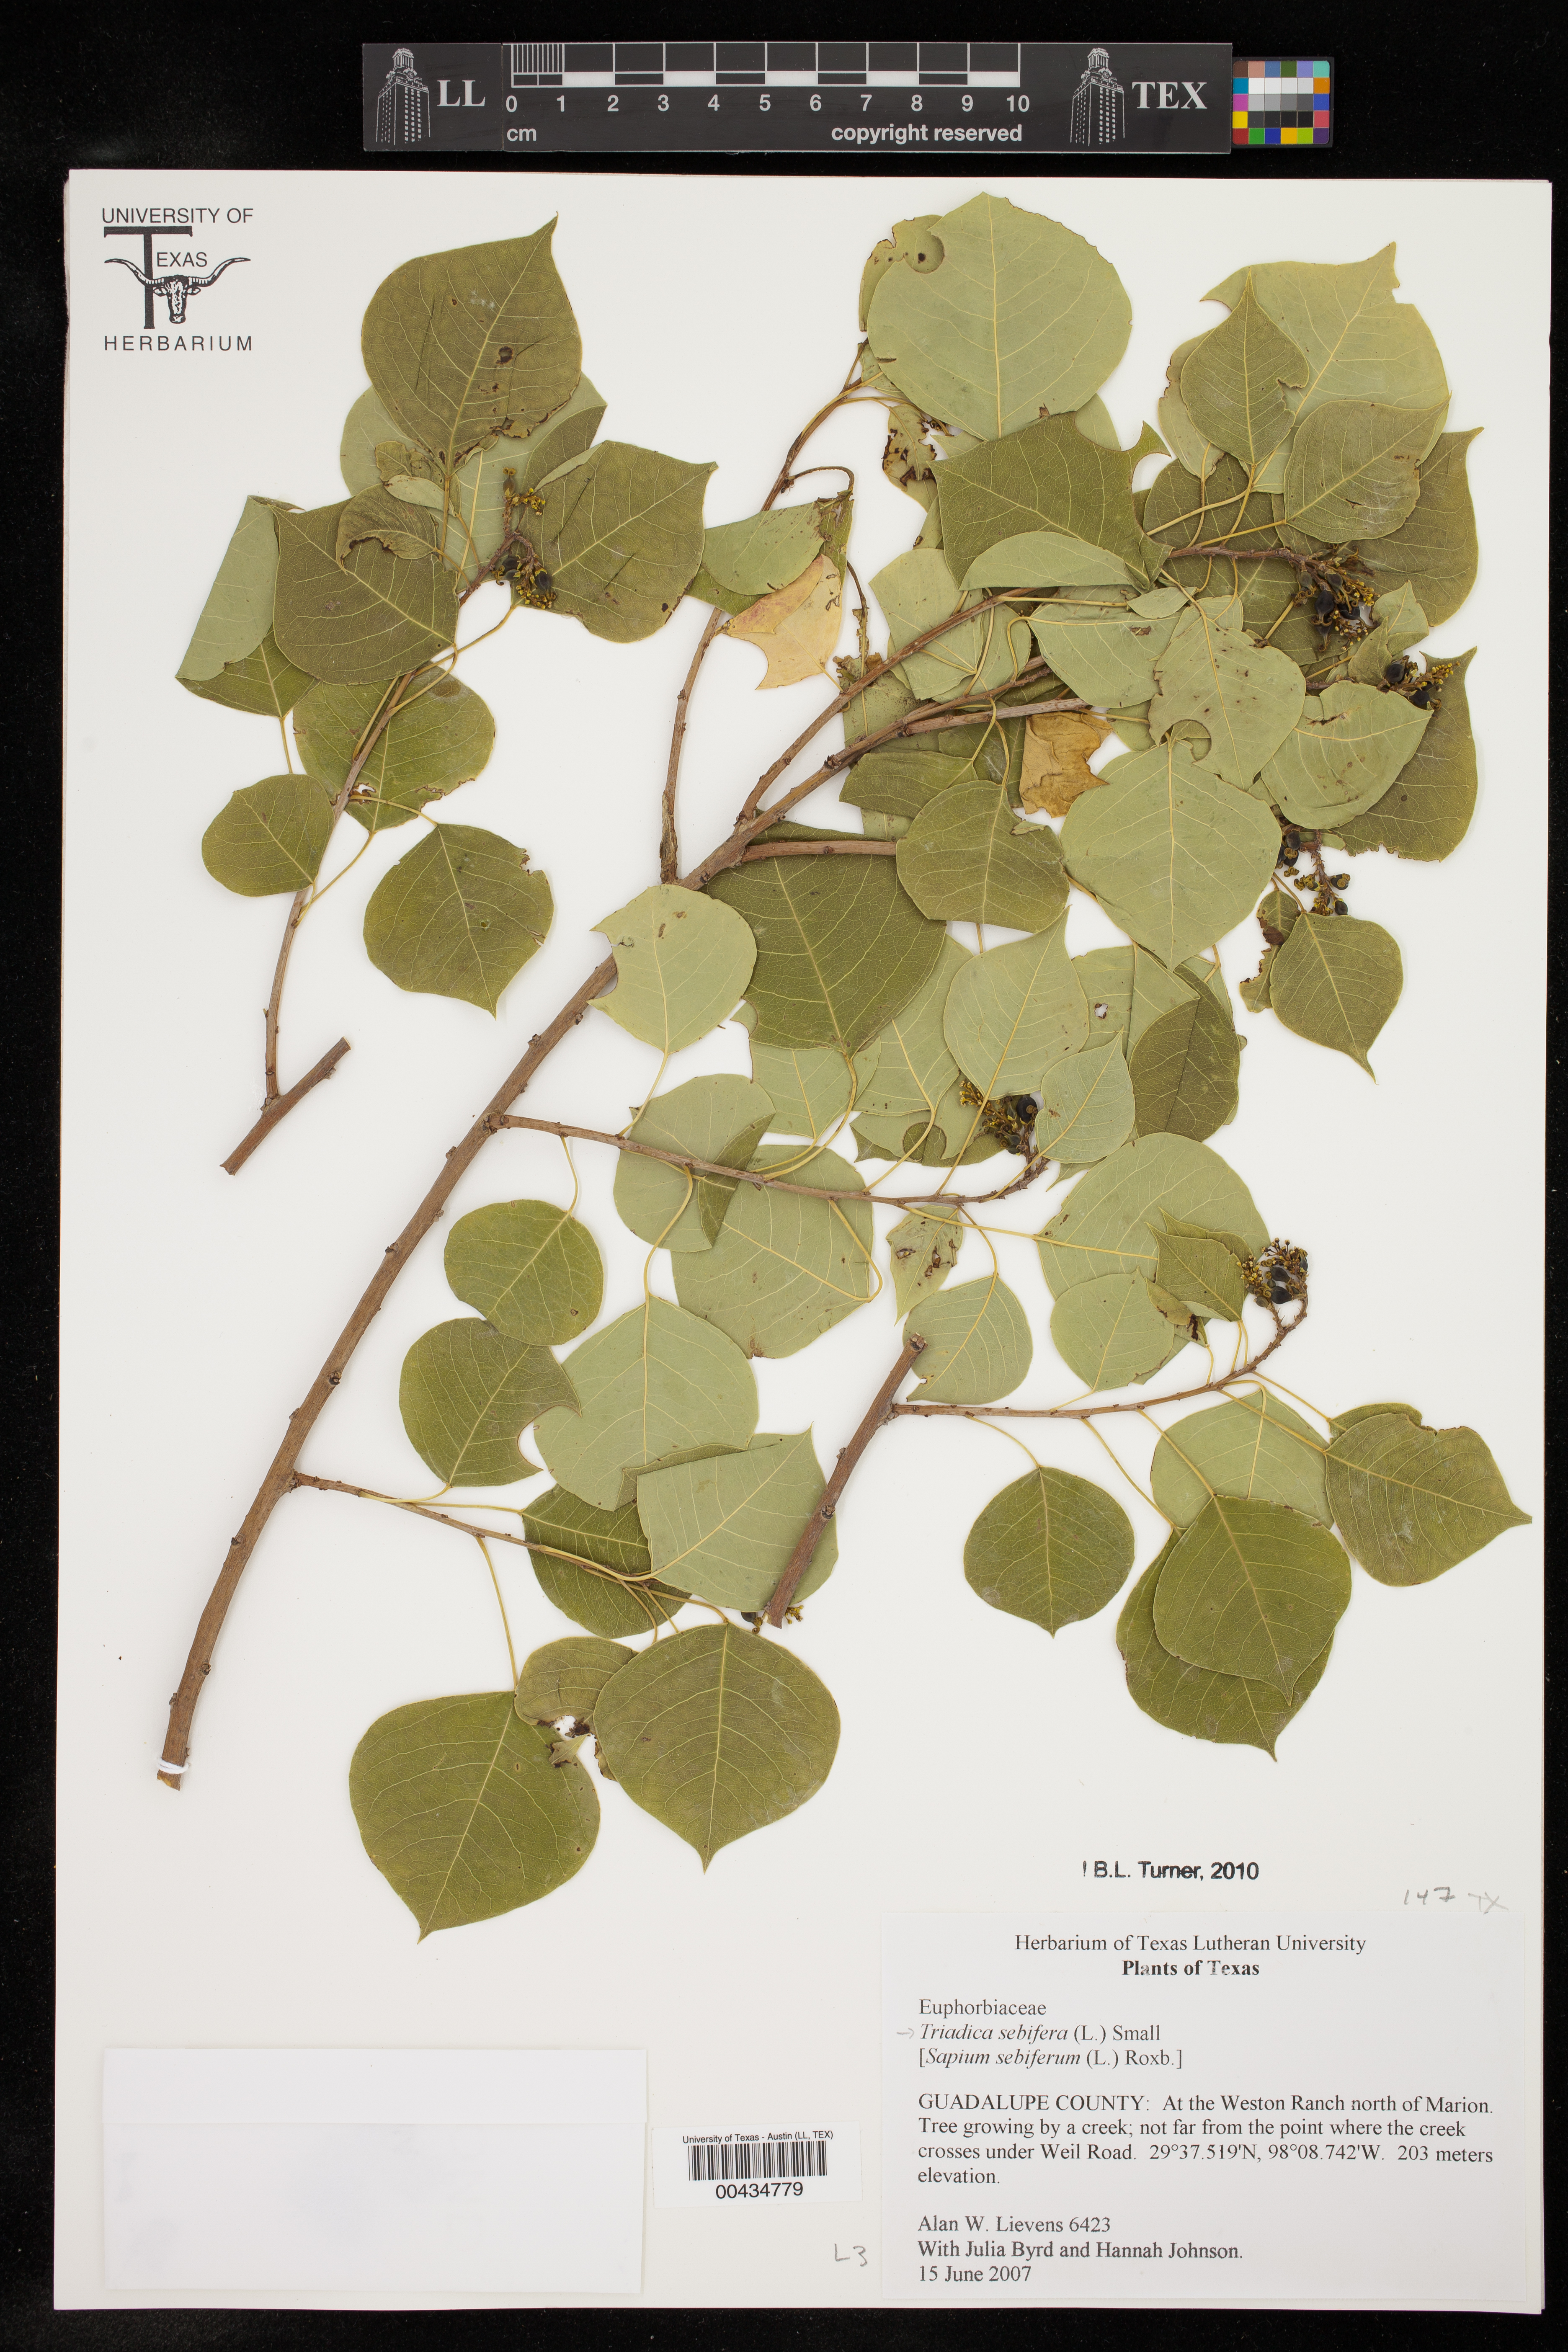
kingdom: Plantae
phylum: Tracheophyta
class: Magnoliopsida
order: Malpighiales
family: Euphorbiaceae
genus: Triadica
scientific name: Triadica sebifera
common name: Chinese tallow
